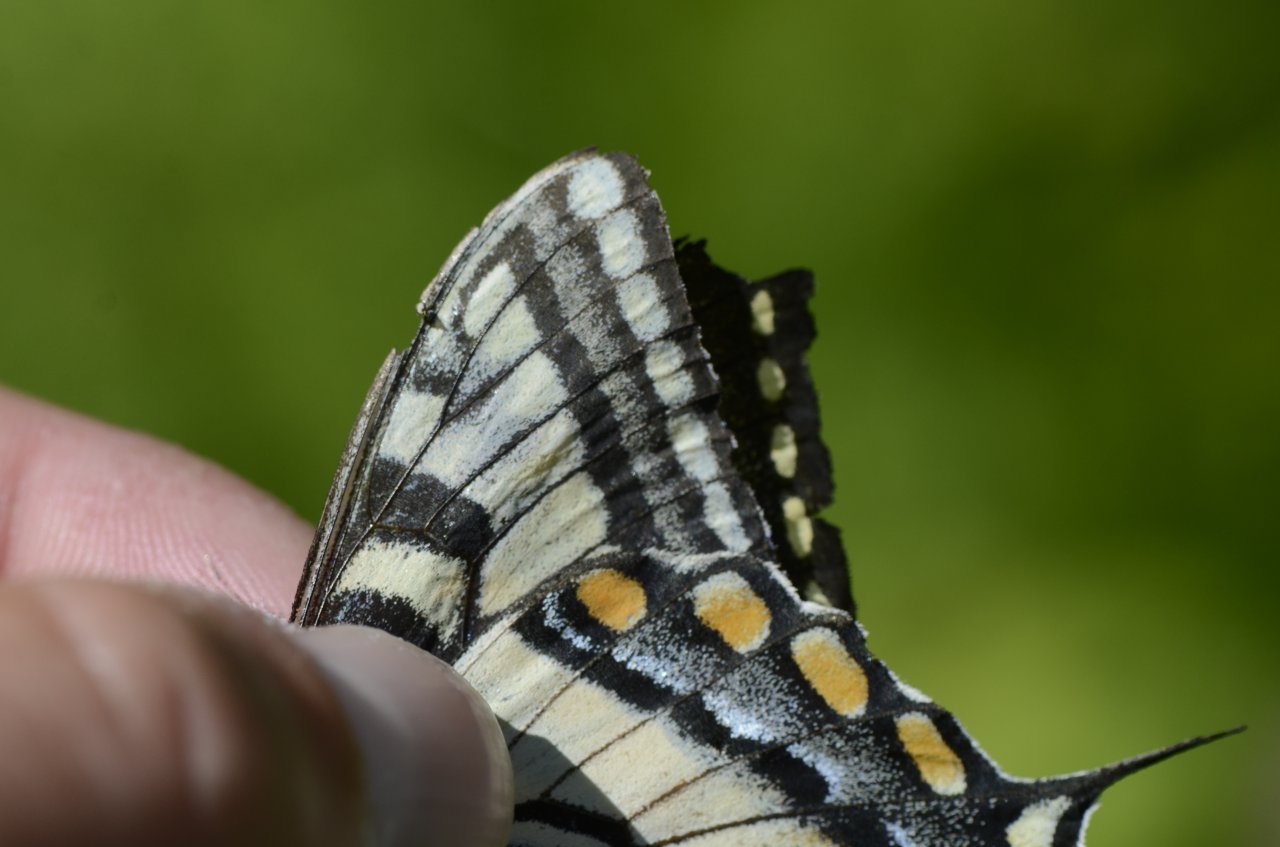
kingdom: Animalia
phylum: Arthropoda
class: Insecta
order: Lepidoptera
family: Papilionidae
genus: Pterourus
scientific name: Pterourus canadensis
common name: Canadian Tiger Swallowtail
